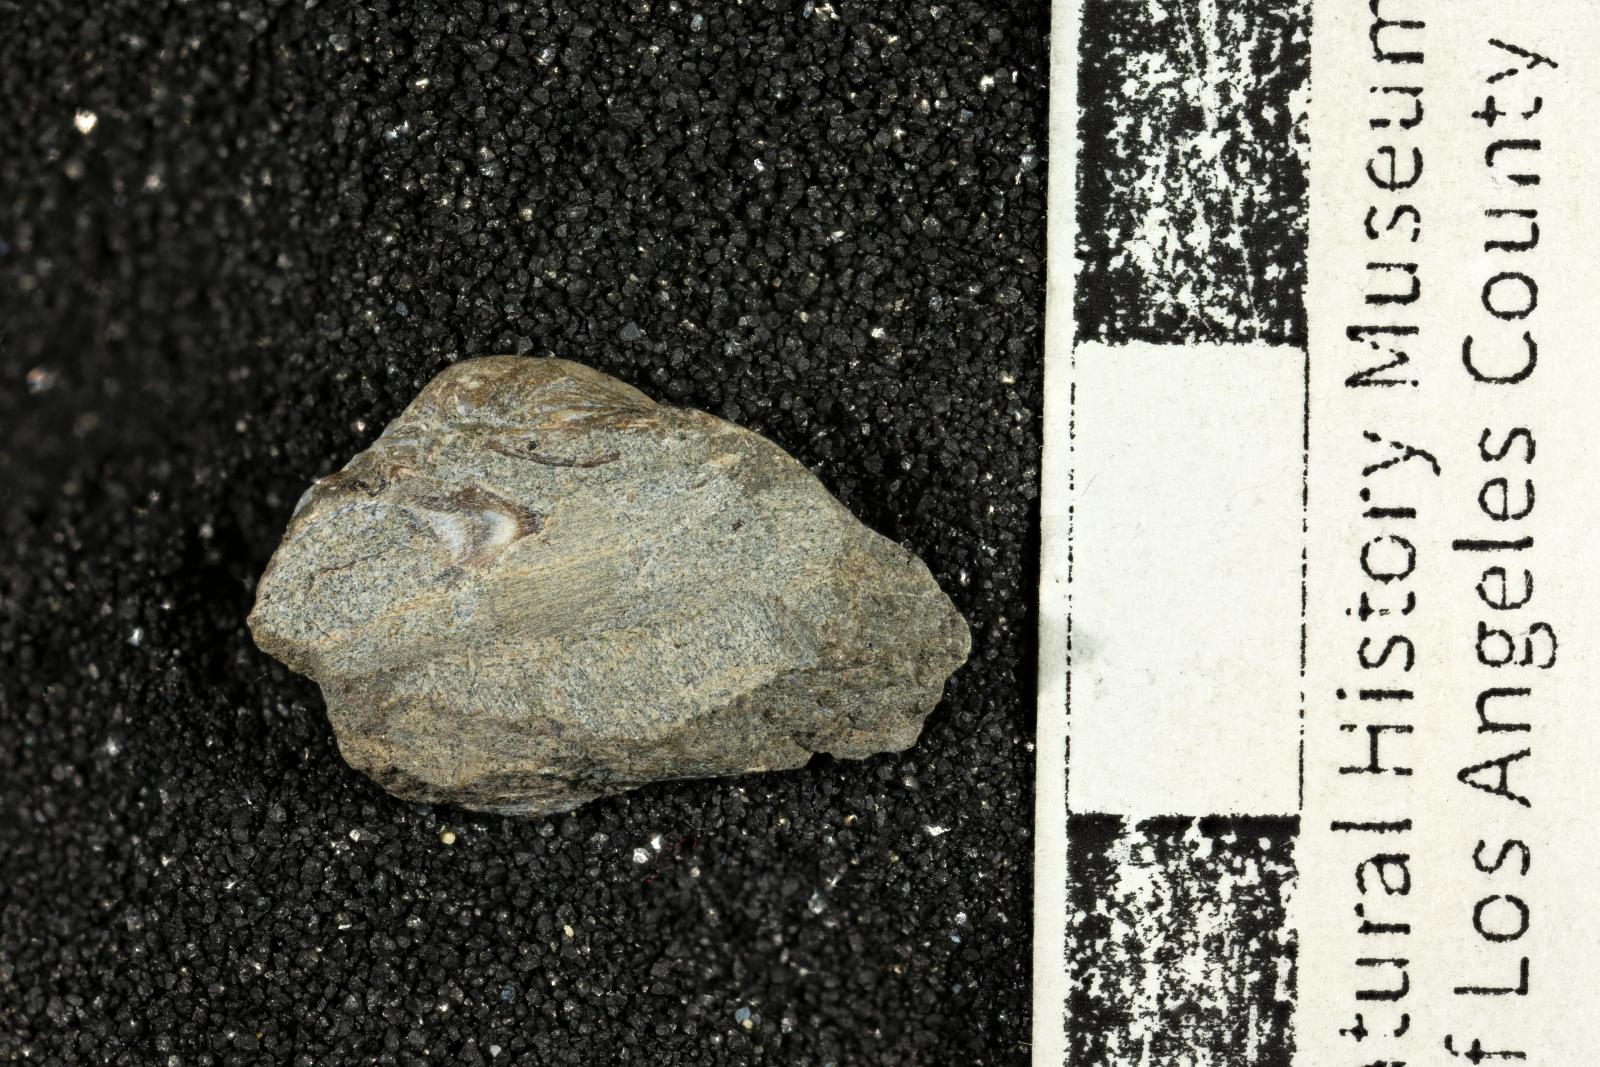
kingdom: Animalia
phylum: Mollusca
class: Bivalvia
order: Arcida
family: Arcidae
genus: Indogrammatodon
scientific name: Indogrammatodon
